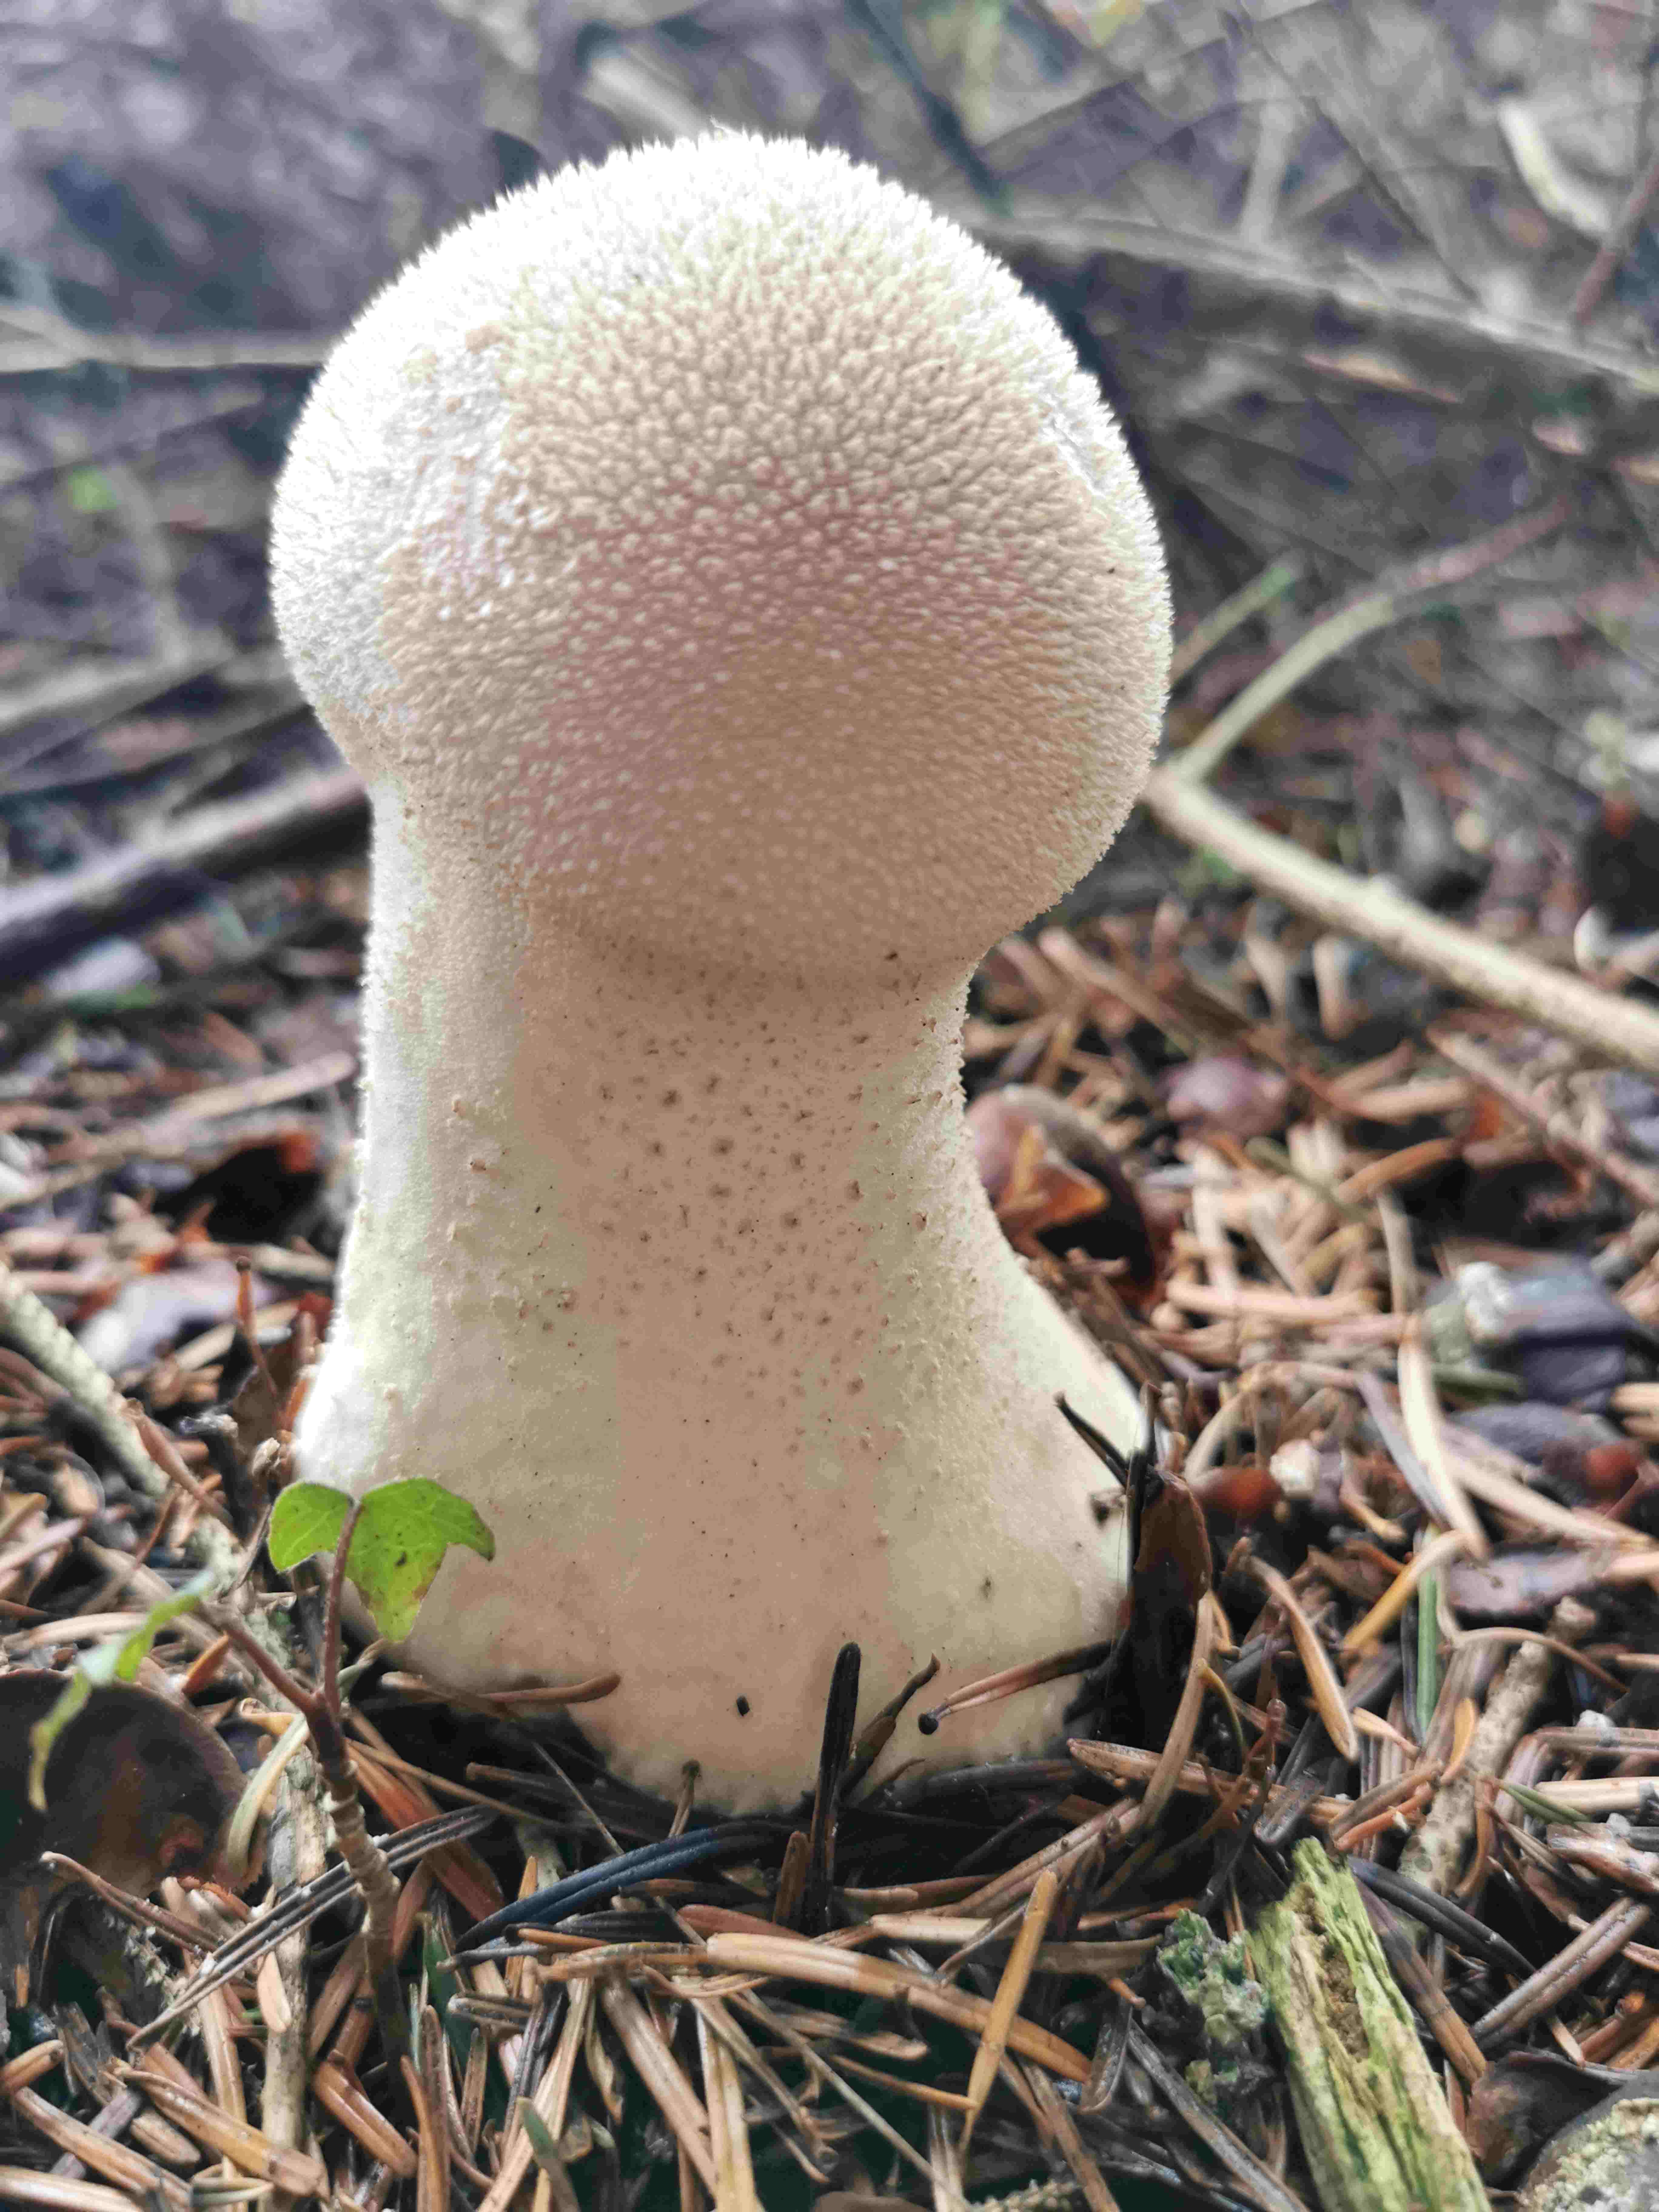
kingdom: Fungi
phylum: Basidiomycota
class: Agaricomycetes
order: Agaricales
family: Agaricaceae
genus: Lycoperdon
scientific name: Lycoperdon
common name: støvbold
